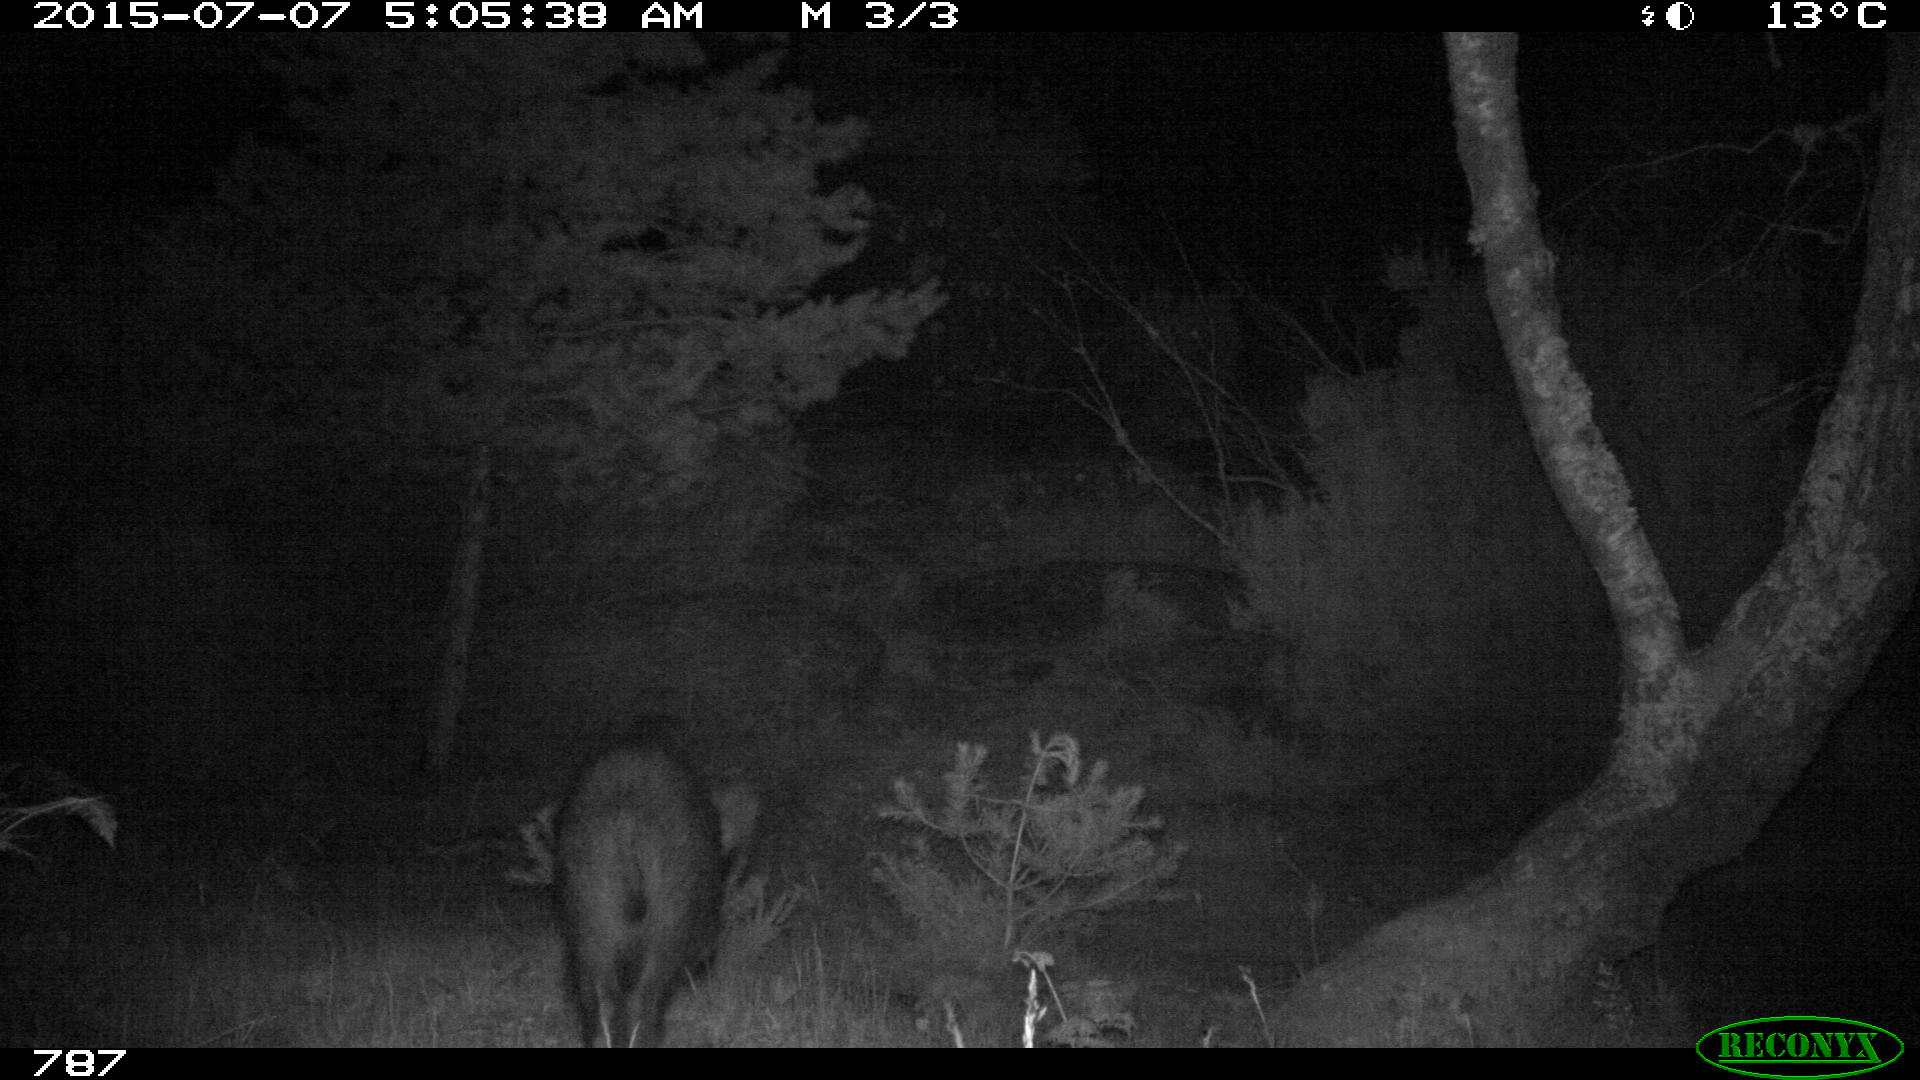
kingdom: Animalia
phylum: Chordata
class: Mammalia
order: Artiodactyla
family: Suidae
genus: Sus
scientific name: Sus scrofa
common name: Wild boar
